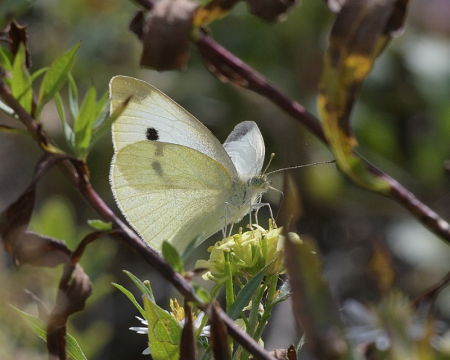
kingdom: Animalia
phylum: Arthropoda
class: Insecta
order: Lepidoptera
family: Pieridae
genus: Pieris
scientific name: Pieris rapae
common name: Cabbage White
